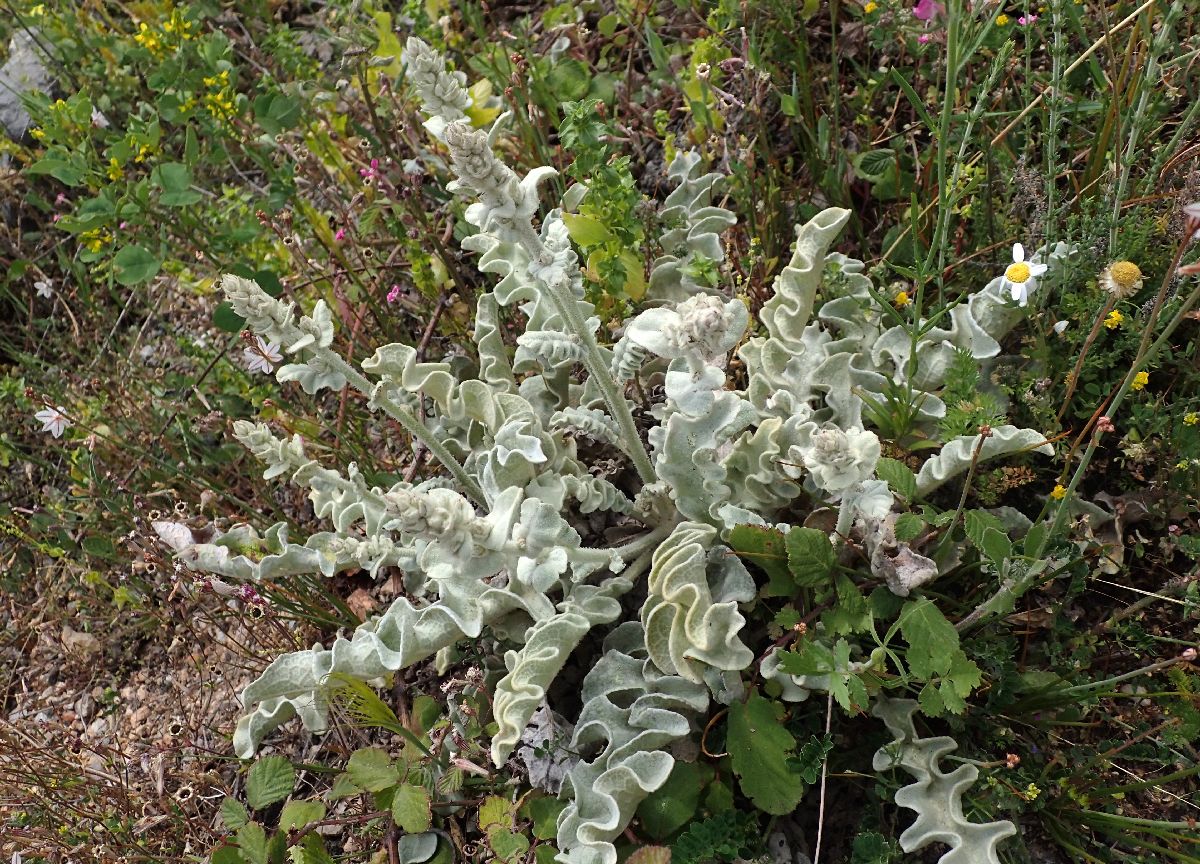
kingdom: Plantae
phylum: Tracheophyta
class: Magnoliopsida
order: Lamiales
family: Scrophulariaceae
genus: Verbascum
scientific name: Verbascum undulatum
